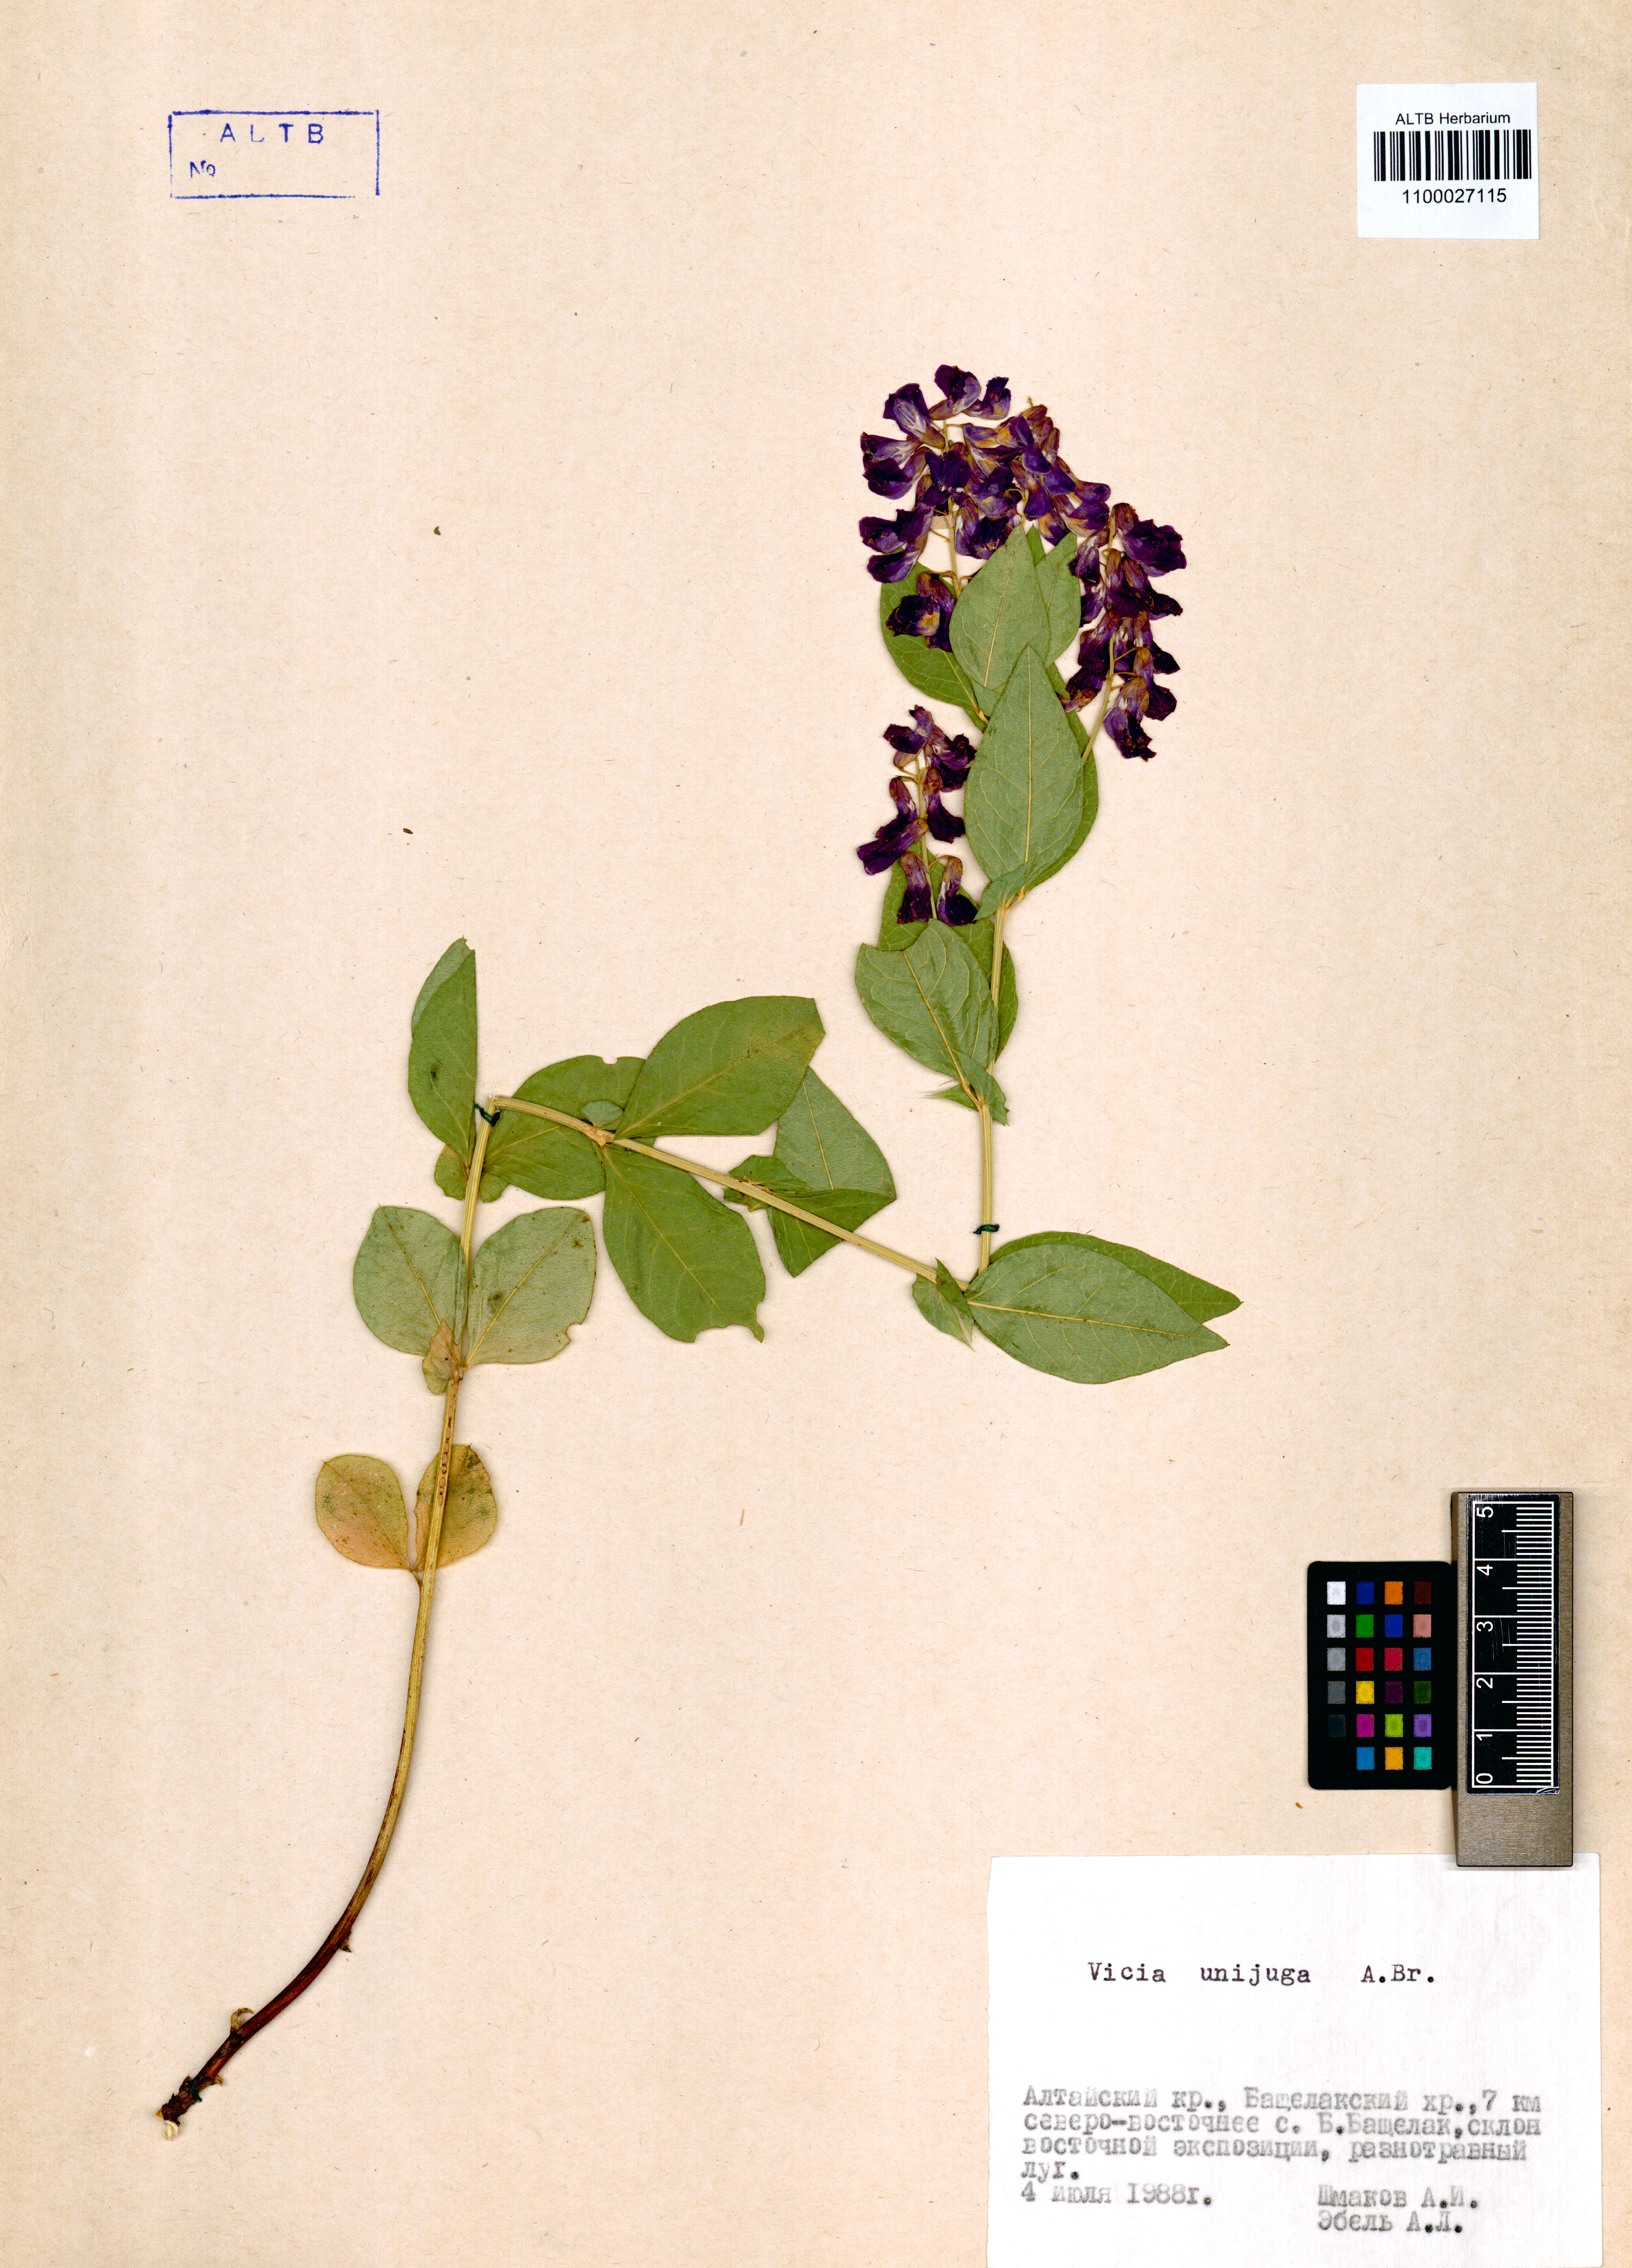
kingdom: Plantae
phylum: Tracheophyta
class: Magnoliopsida
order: Fabales
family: Fabaceae
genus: Vicia
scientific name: Vicia unijuga
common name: Two-leaf vetch
